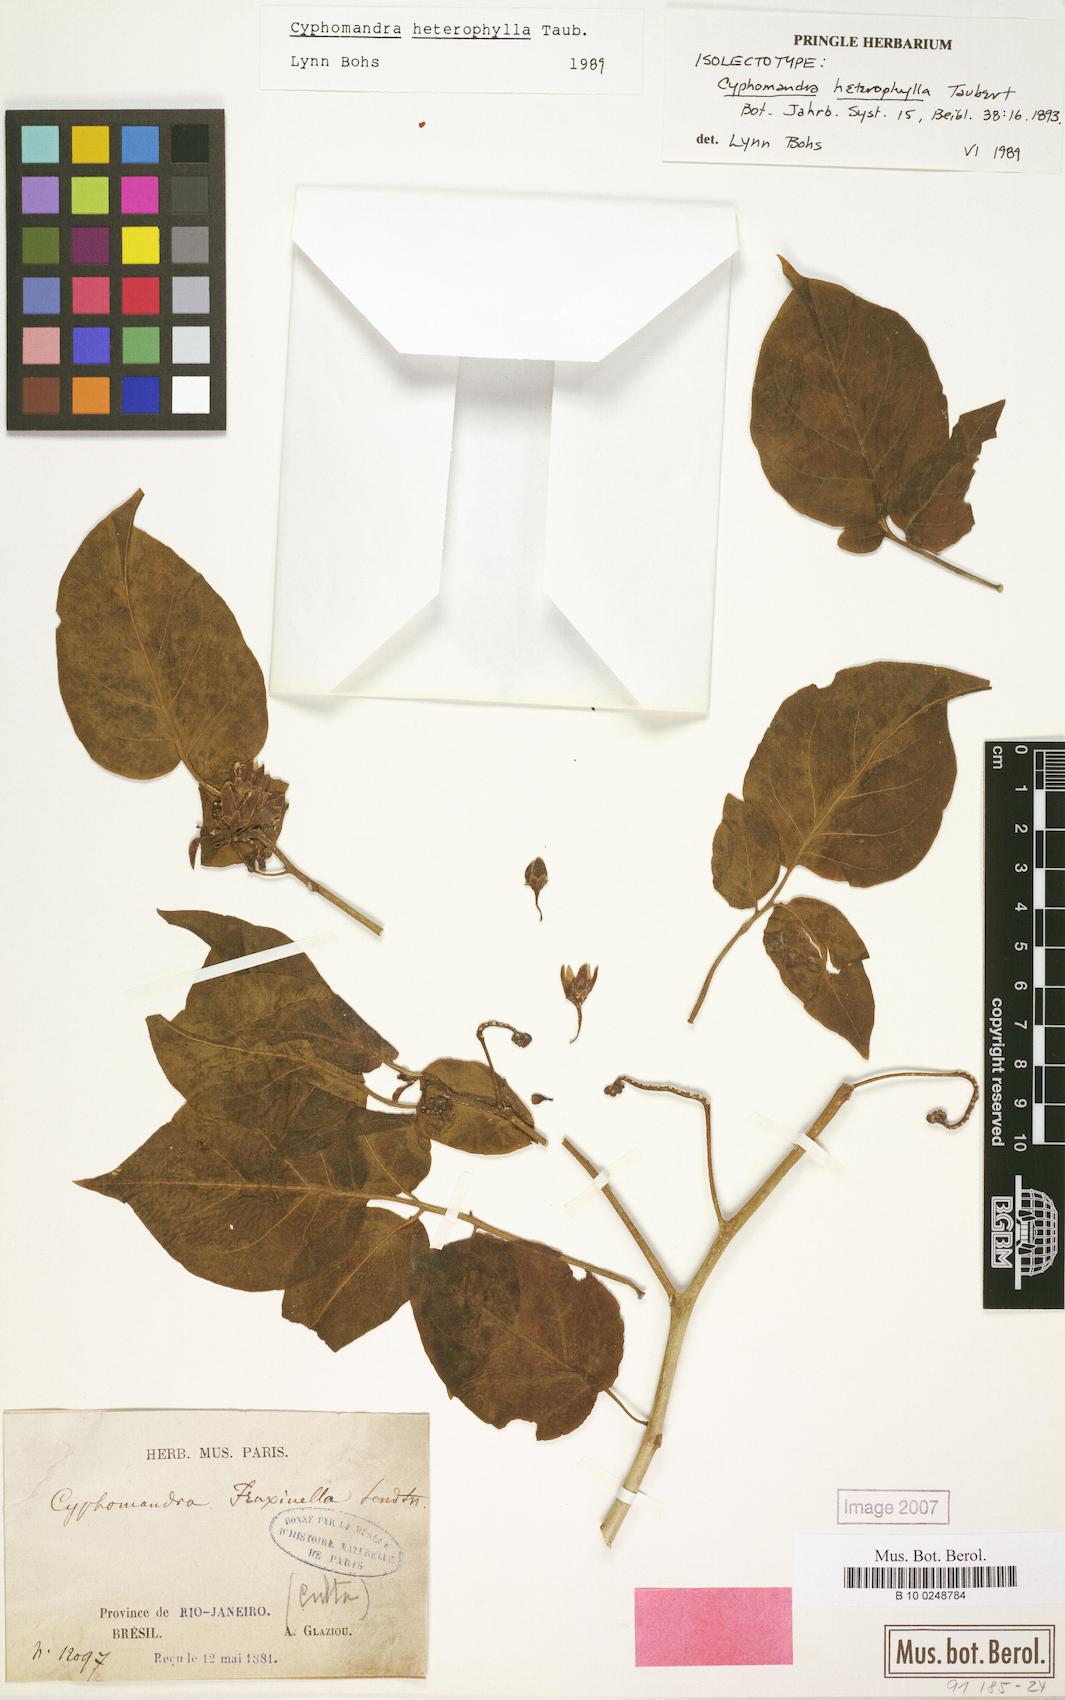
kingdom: Plantae
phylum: Tracheophyta
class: Magnoliopsida
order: Solanales
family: Solanaceae
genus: Solanum
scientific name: Solanum paralum
